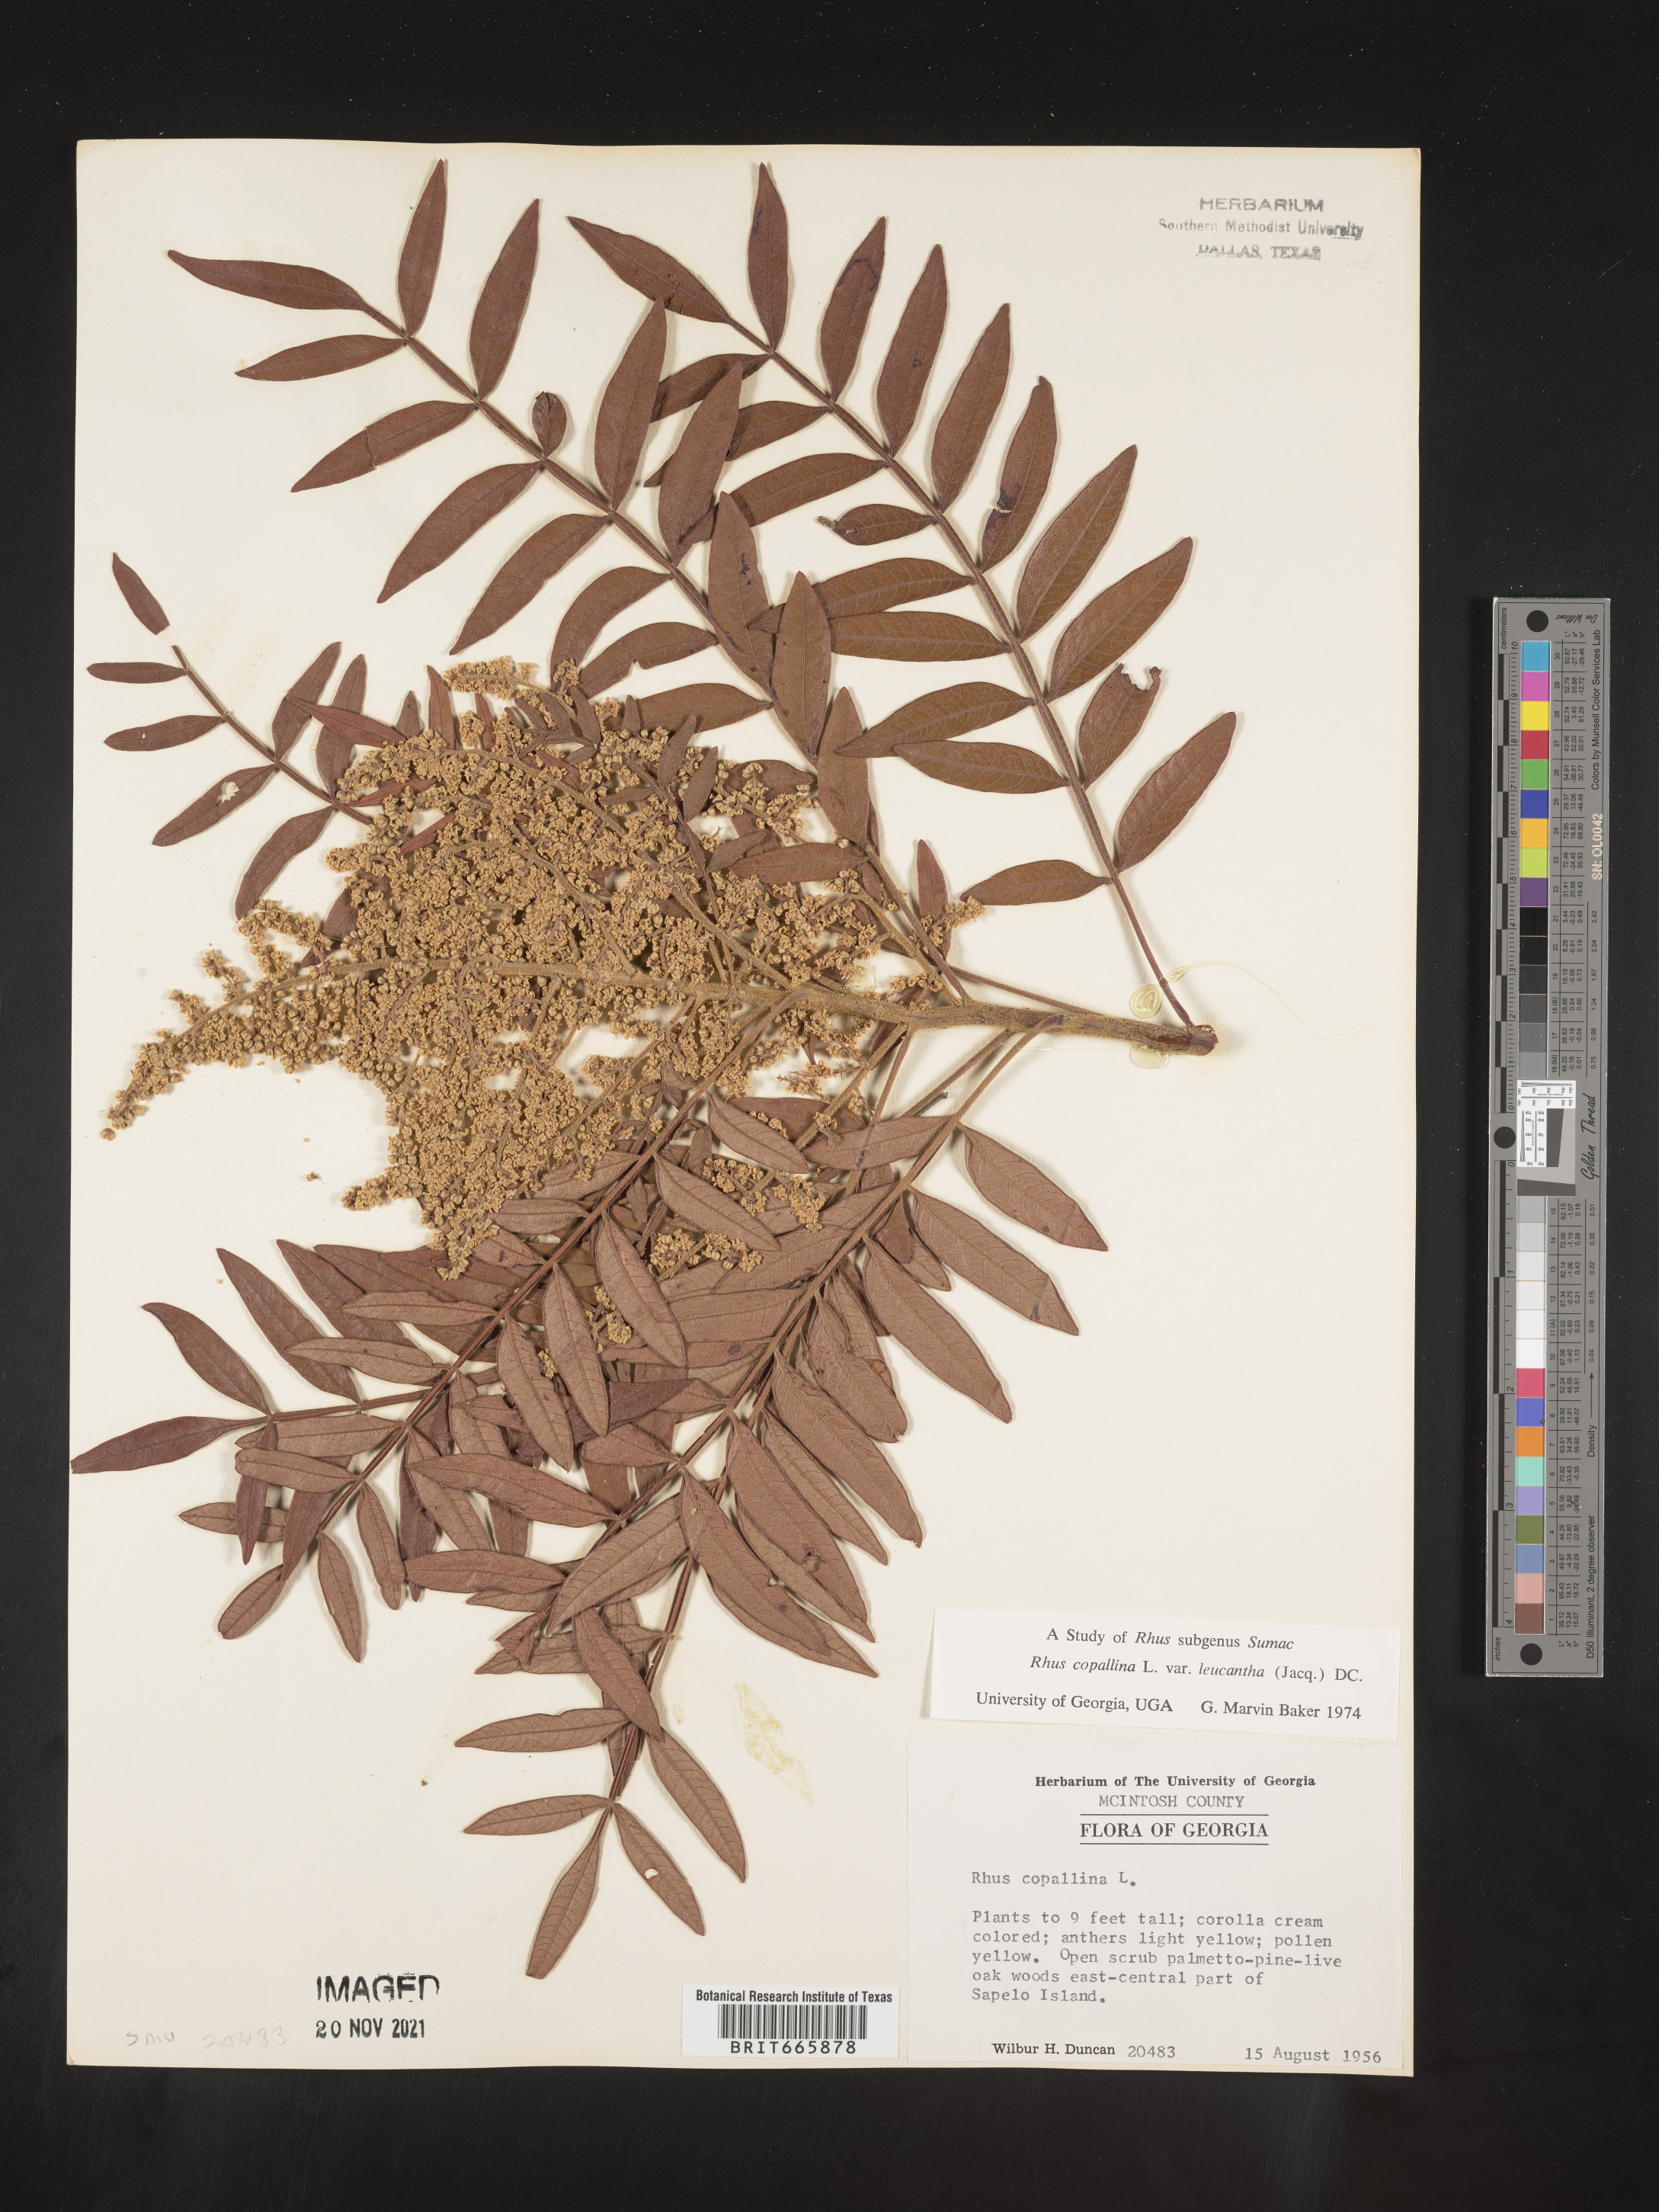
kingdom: Plantae
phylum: Tracheophyta
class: Magnoliopsida
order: Sapindales
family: Anacardiaceae
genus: Rhus
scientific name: Rhus copallina
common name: Shining sumac
